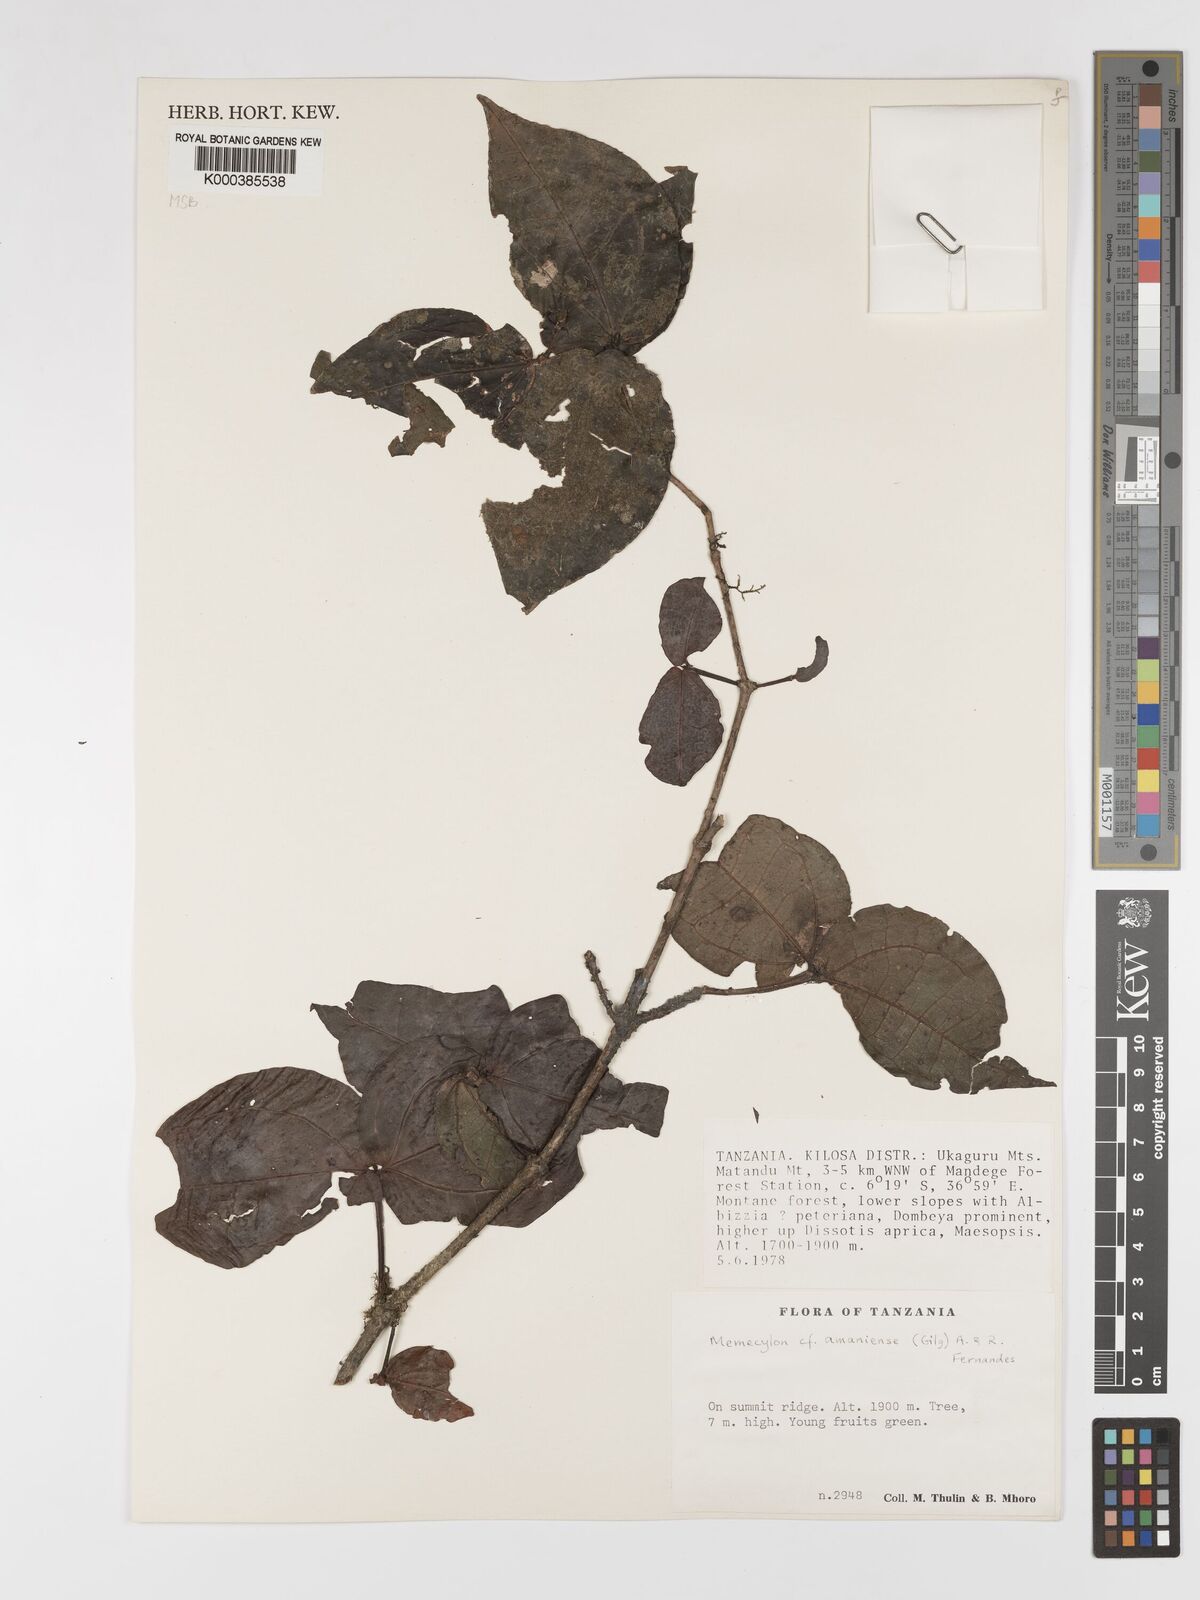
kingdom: Plantae
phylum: Tracheophyta
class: Magnoliopsida
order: Myrtales
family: Melastomataceae
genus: Warneckea
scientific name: Warneckea amaniensis
